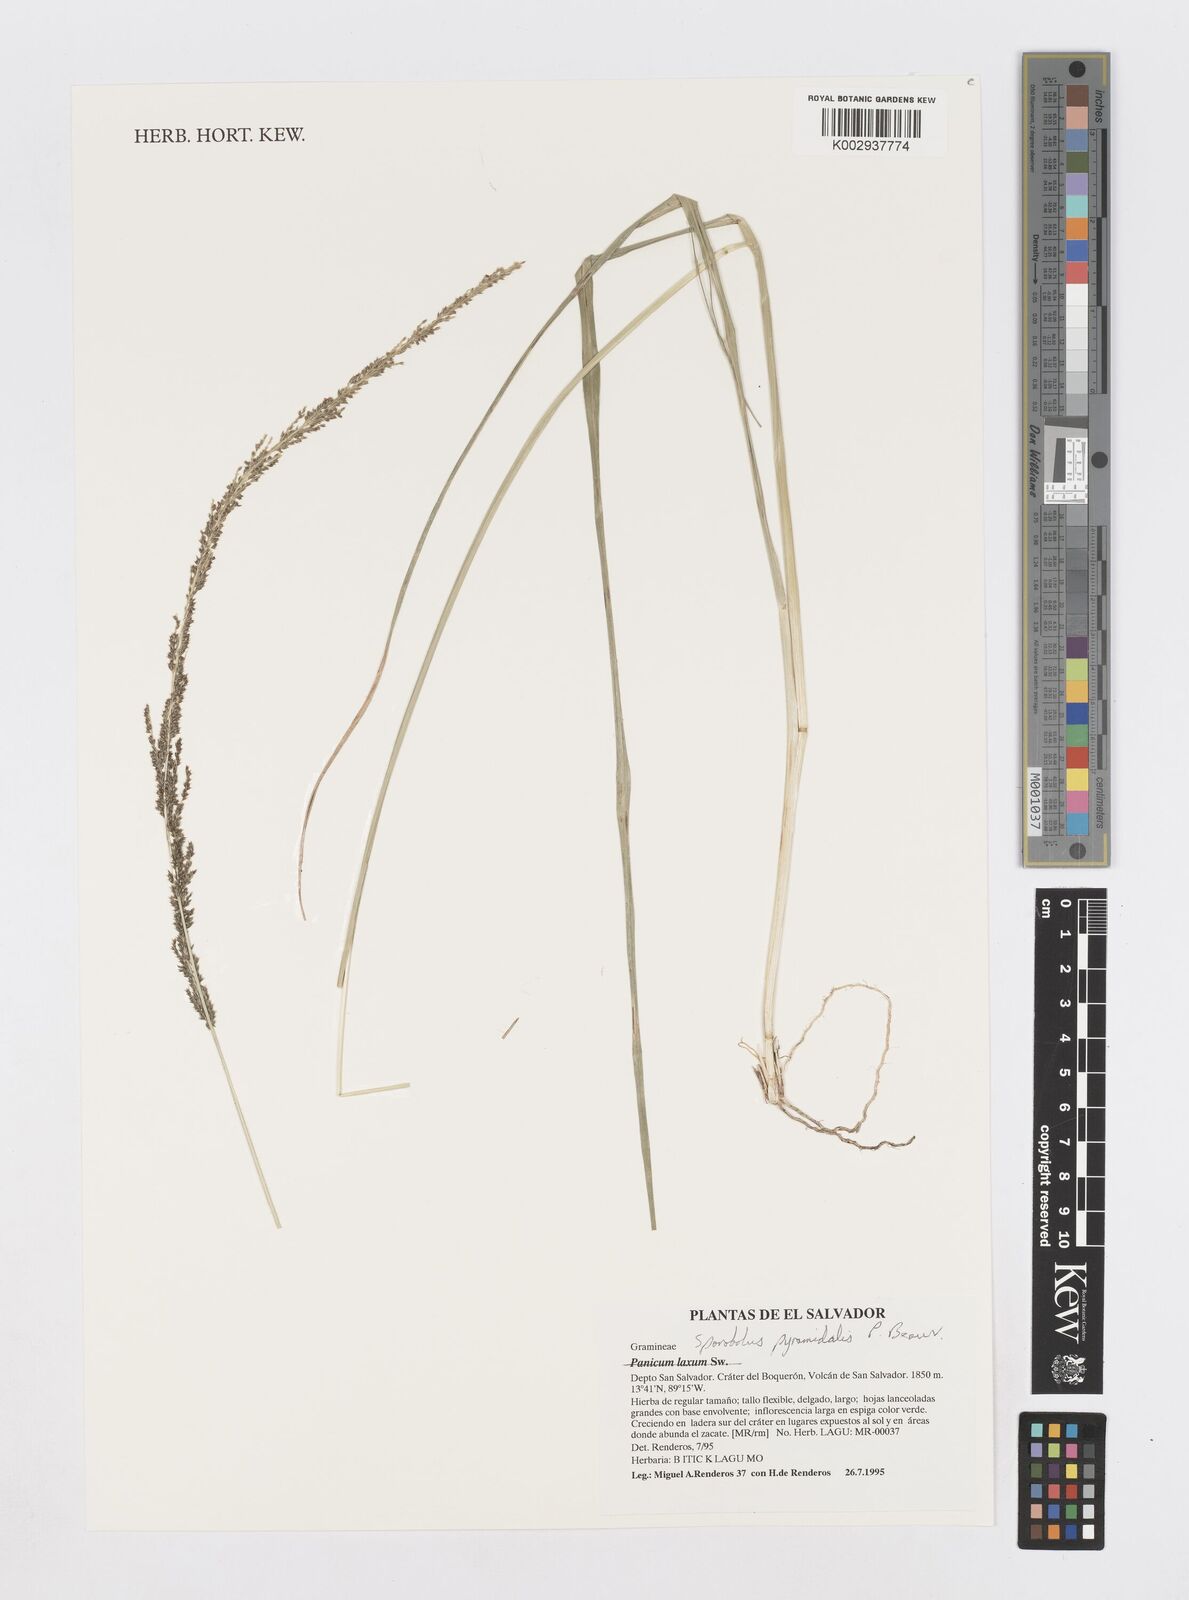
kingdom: Plantae
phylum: Tracheophyta
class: Liliopsida
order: Poales
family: Poaceae
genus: Sporobolus
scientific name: Sporobolus pyramidalis
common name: West indian dropseed
